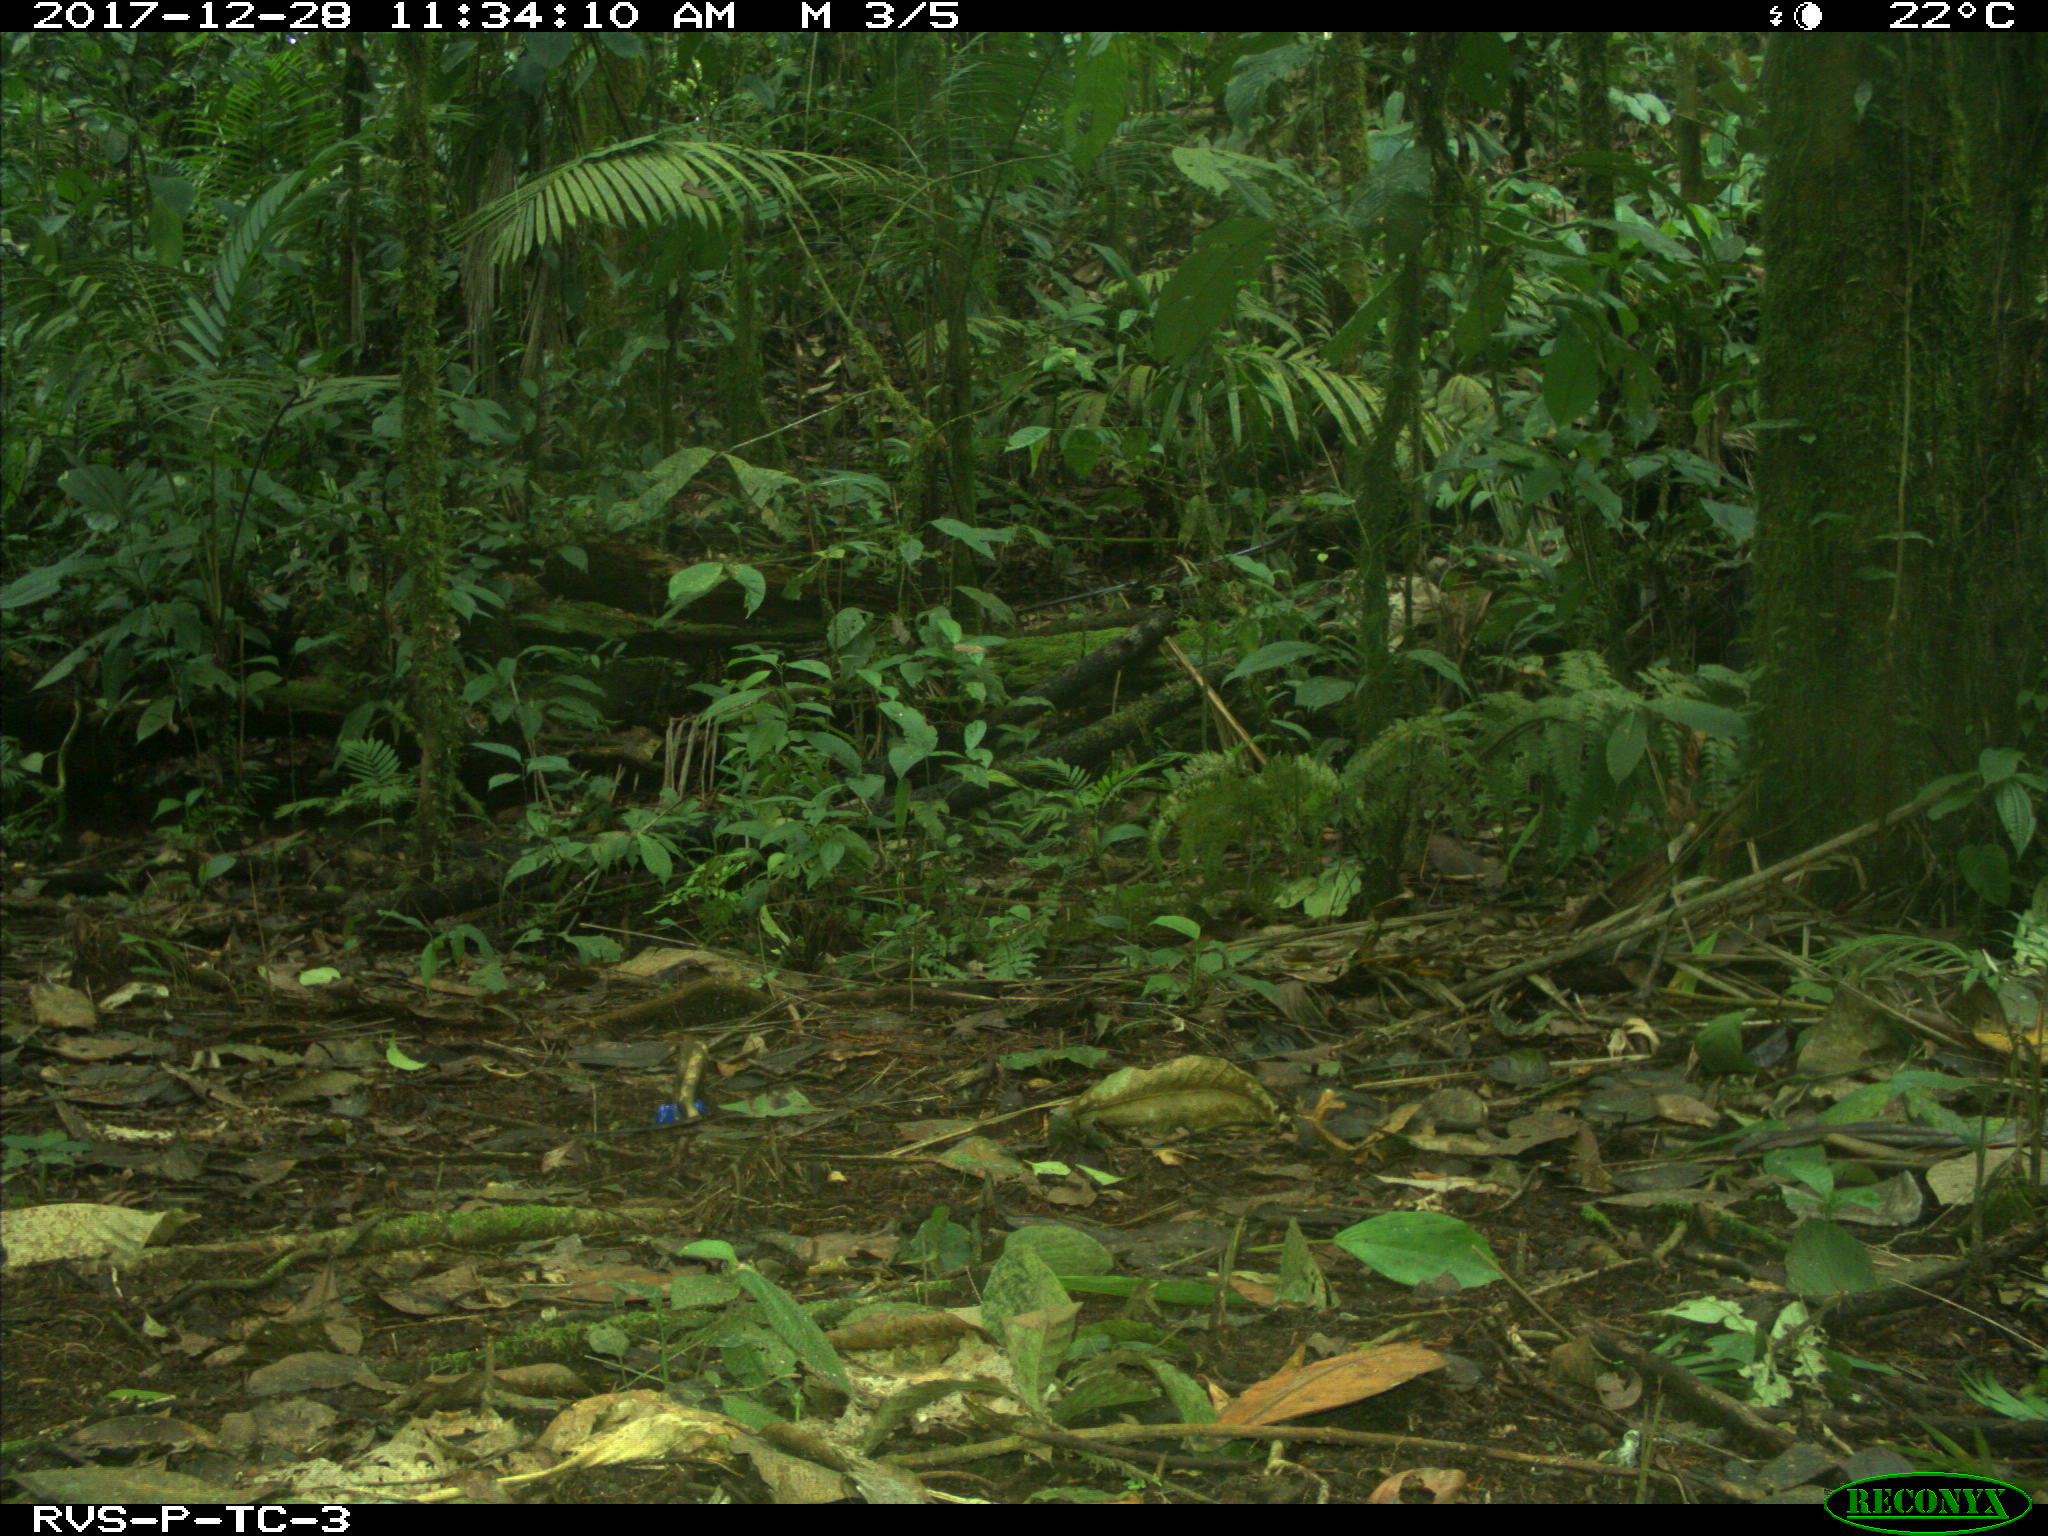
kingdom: Animalia
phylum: Chordata
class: Mammalia
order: Rodentia
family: Dasyproctidae
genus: Dasyprocta
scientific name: Dasyprocta punctata
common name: Central american agouti
